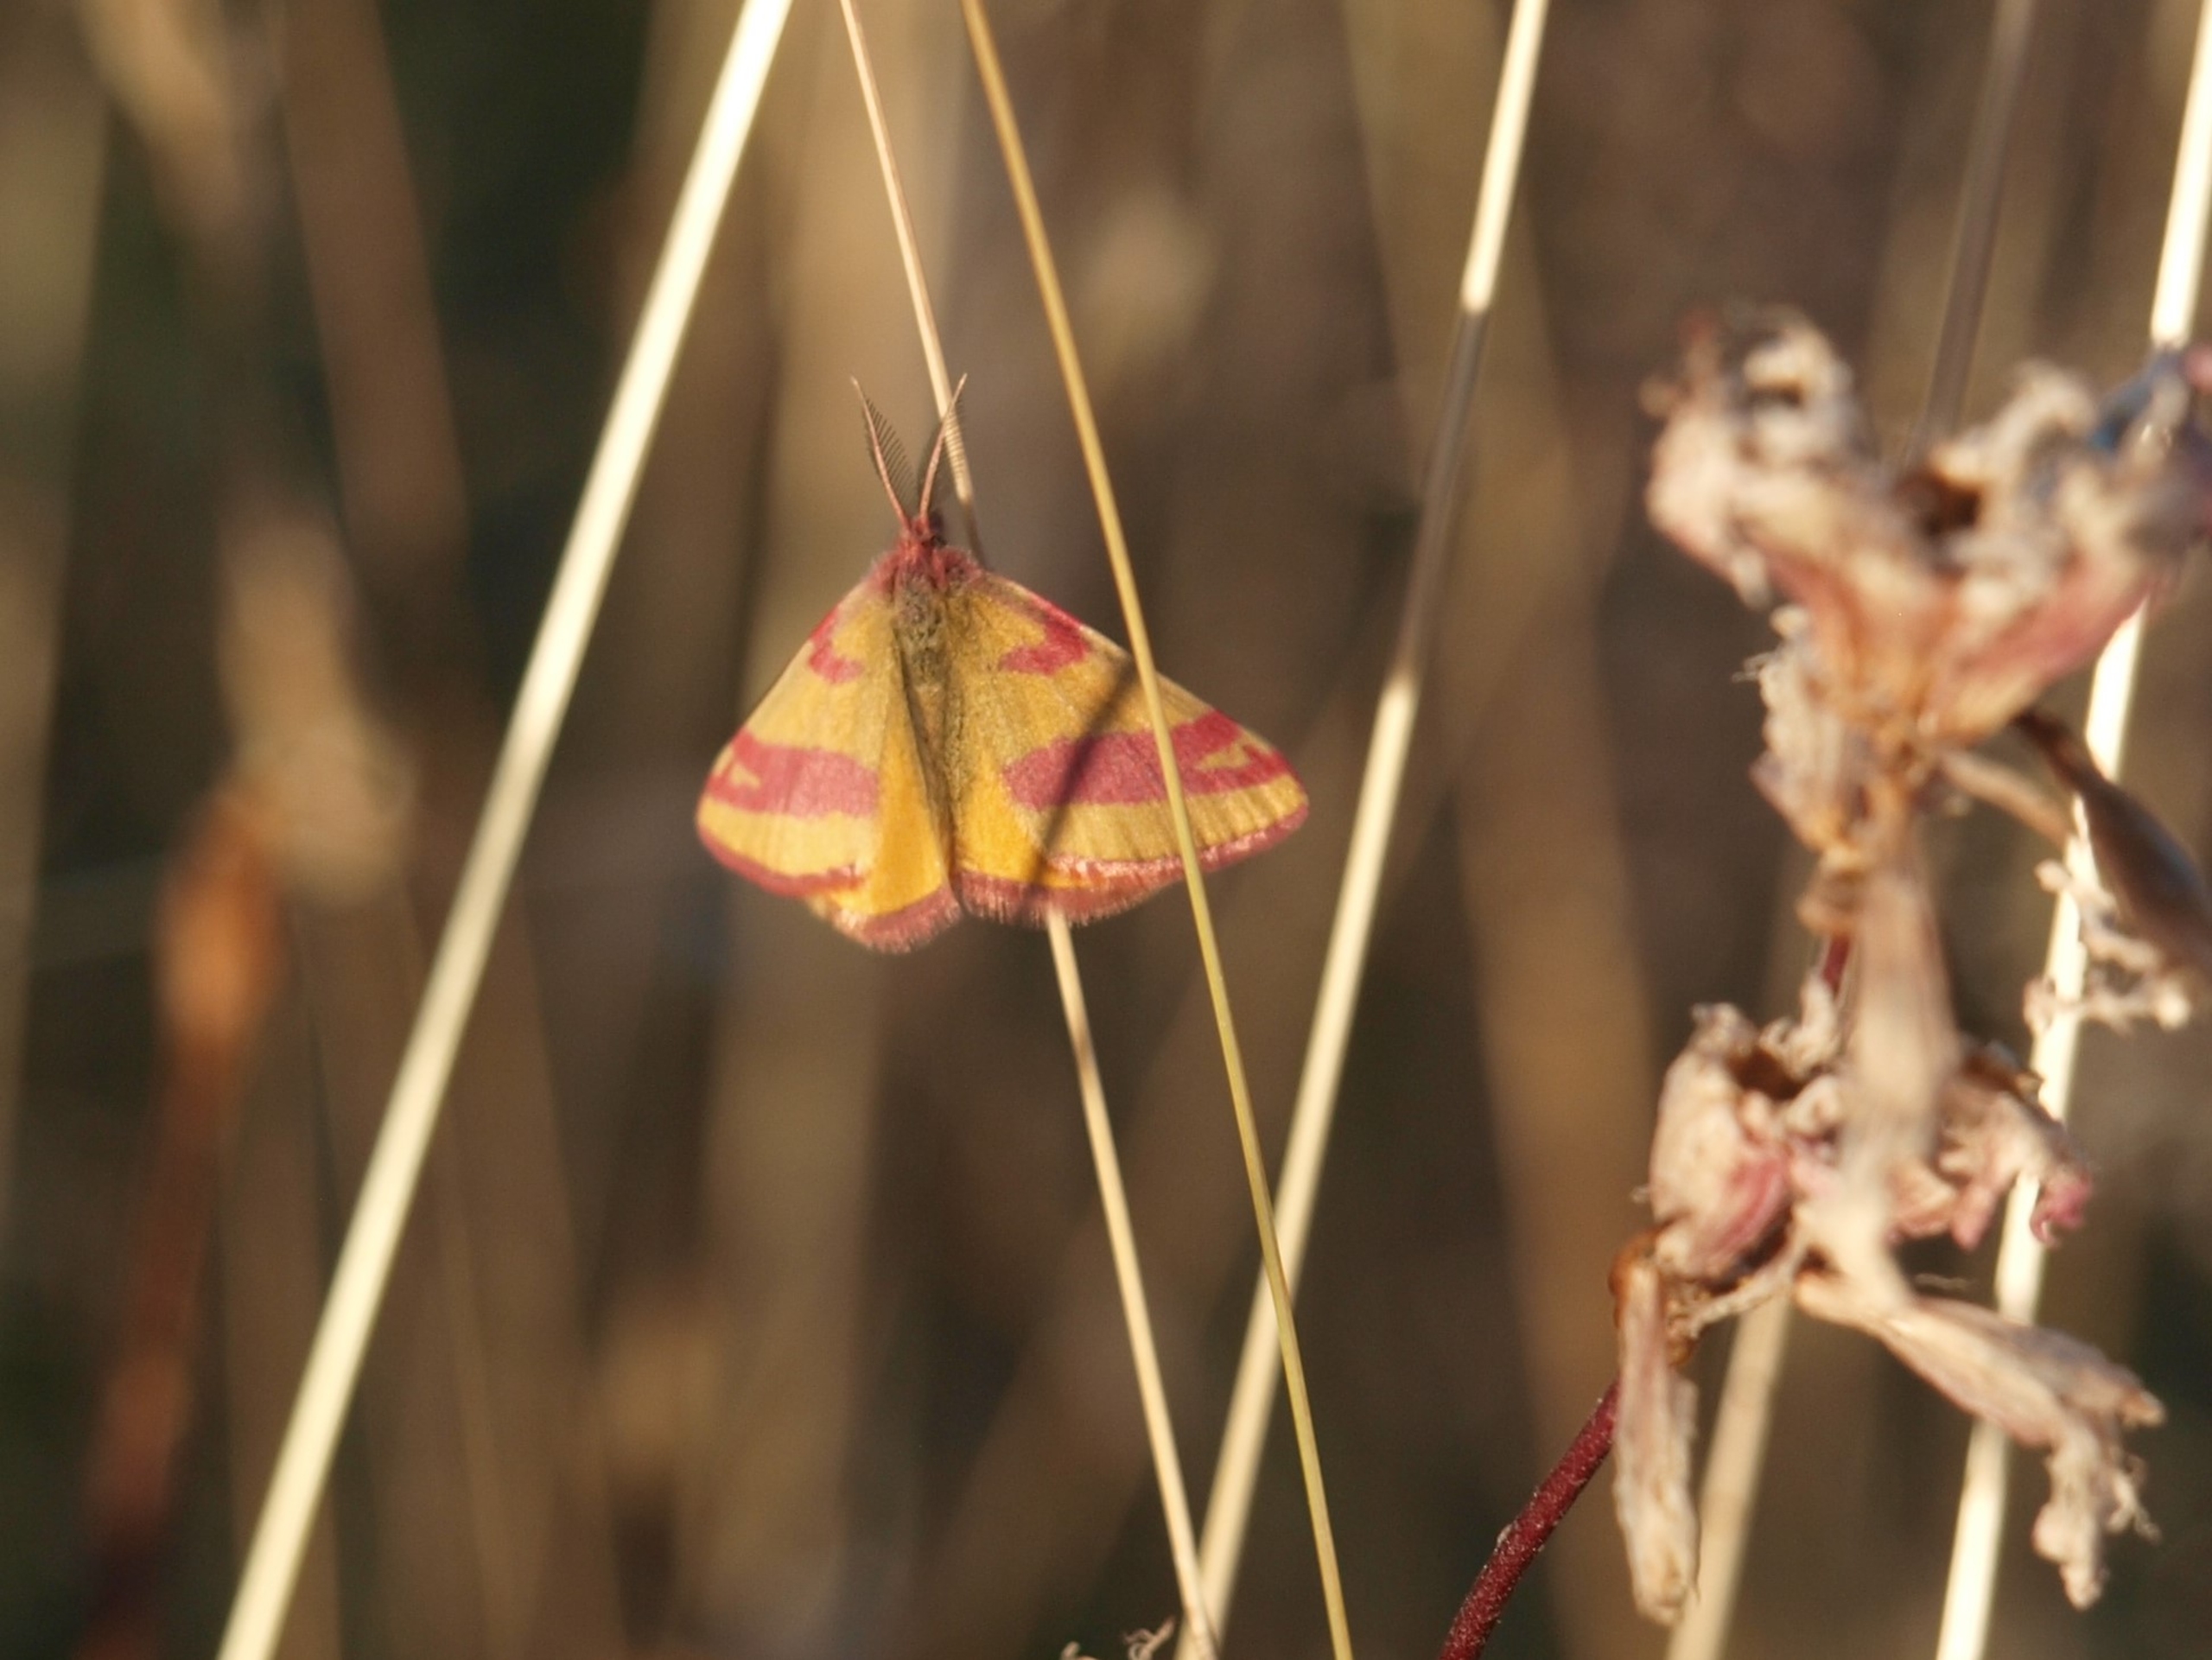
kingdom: Animalia
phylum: Arthropoda
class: Insecta
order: Lepidoptera
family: Geometridae
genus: Lythria
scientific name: Lythria cruentaria
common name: Purpurmåler
